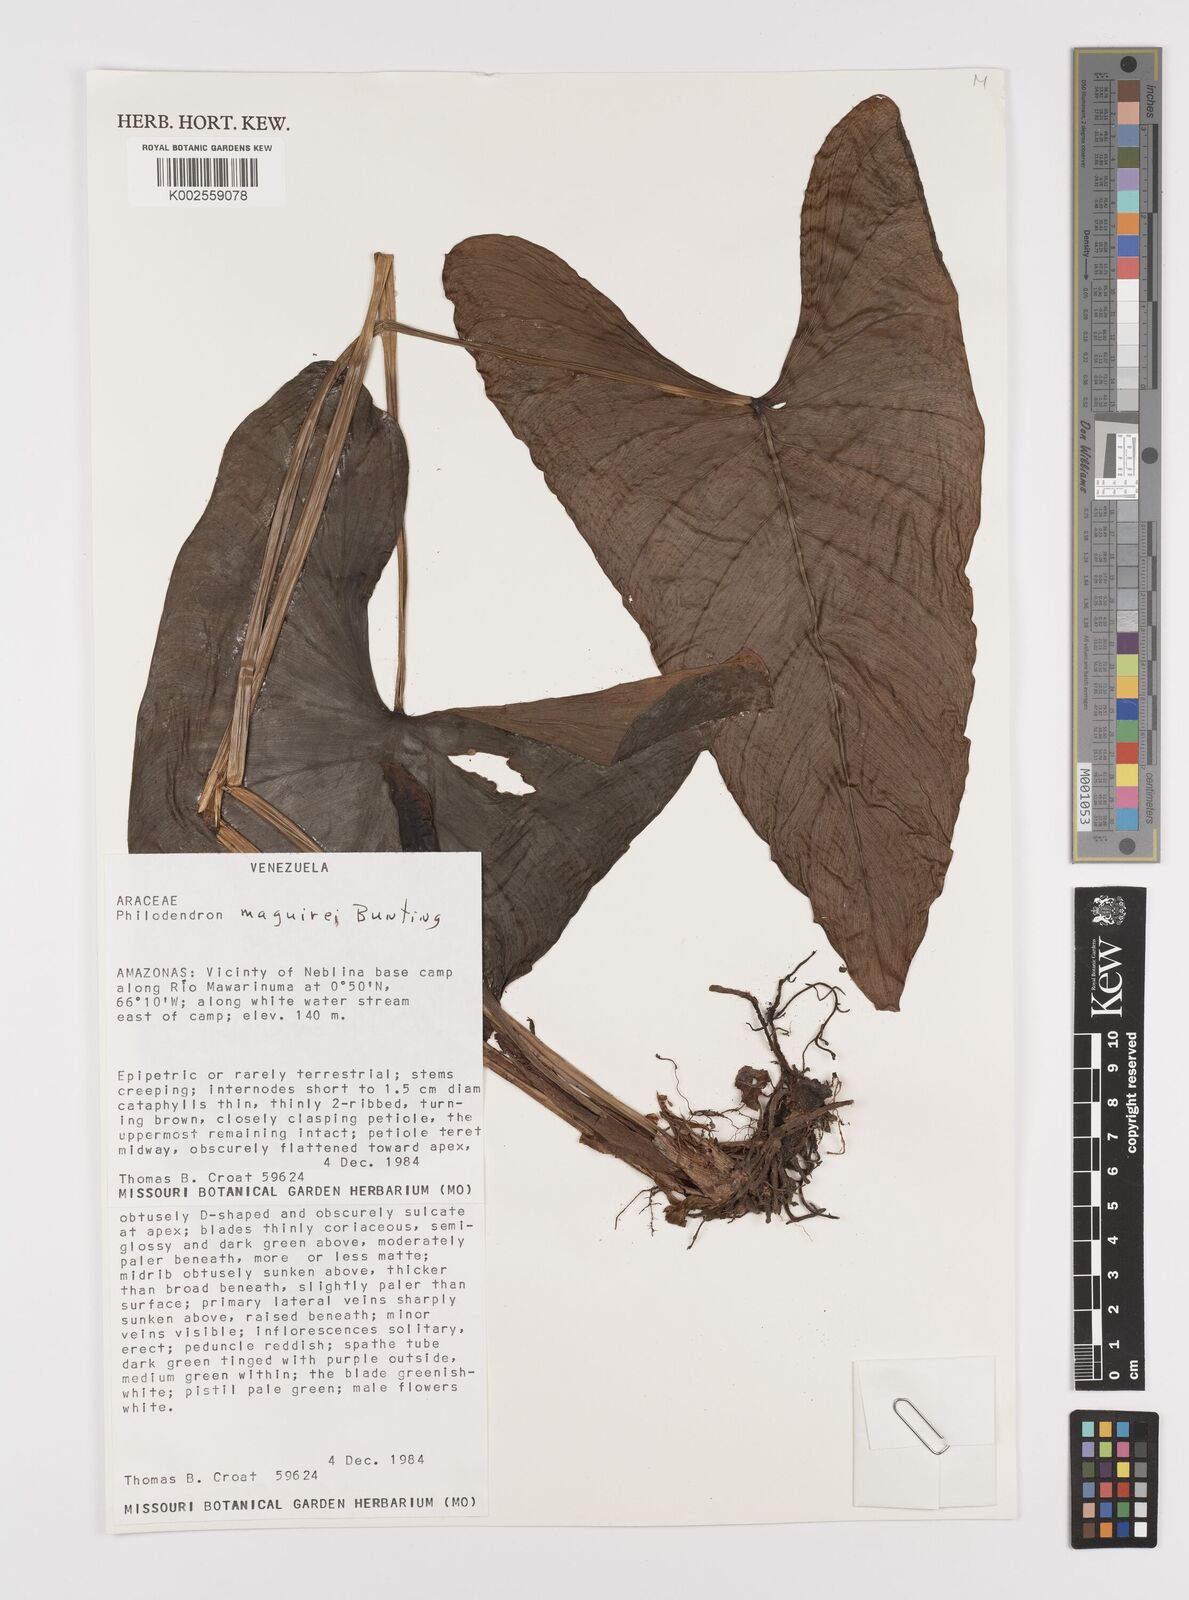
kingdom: Plantae
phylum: Tracheophyta
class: Liliopsida
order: Alismatales
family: Araceae
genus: Philodendron
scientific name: Philodendron maguirei
